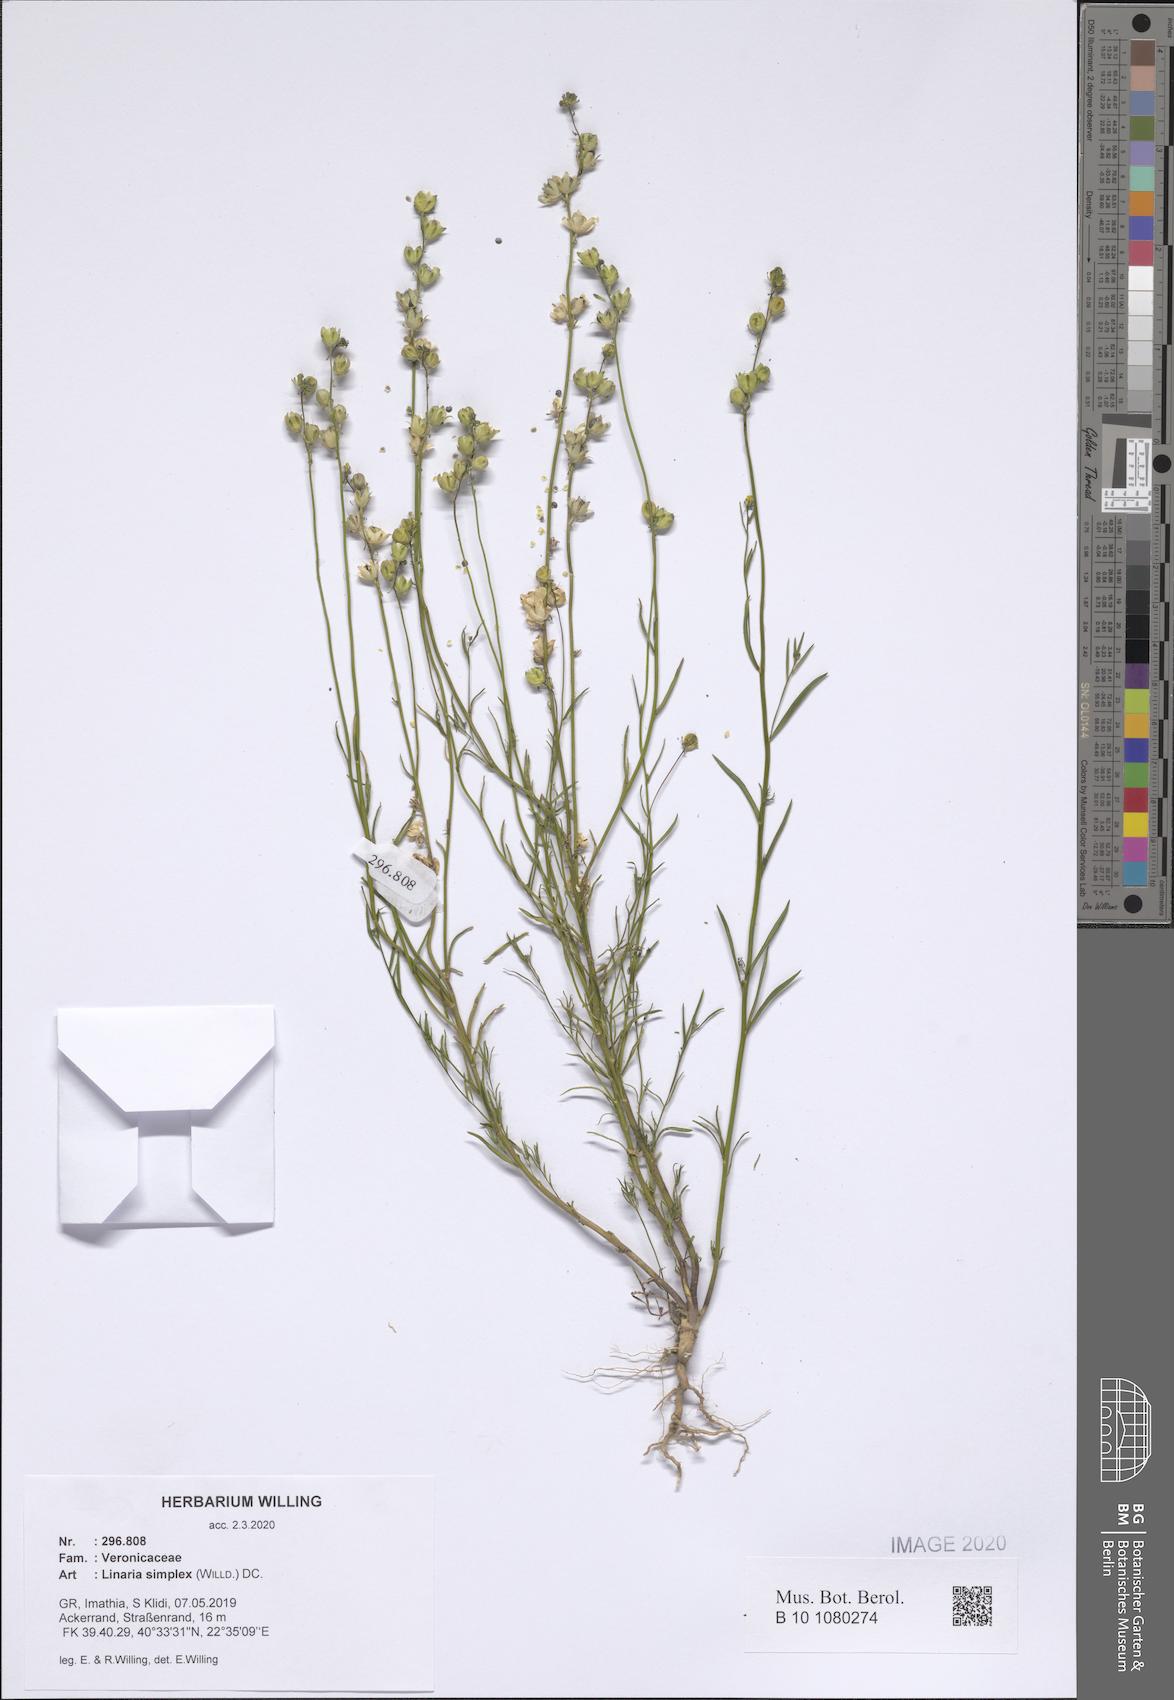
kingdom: Plantae
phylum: Tracheophyta
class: Magnoliopsida
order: Lamiales
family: Plantaginaceae
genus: Linaria
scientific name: Linaria simplex
